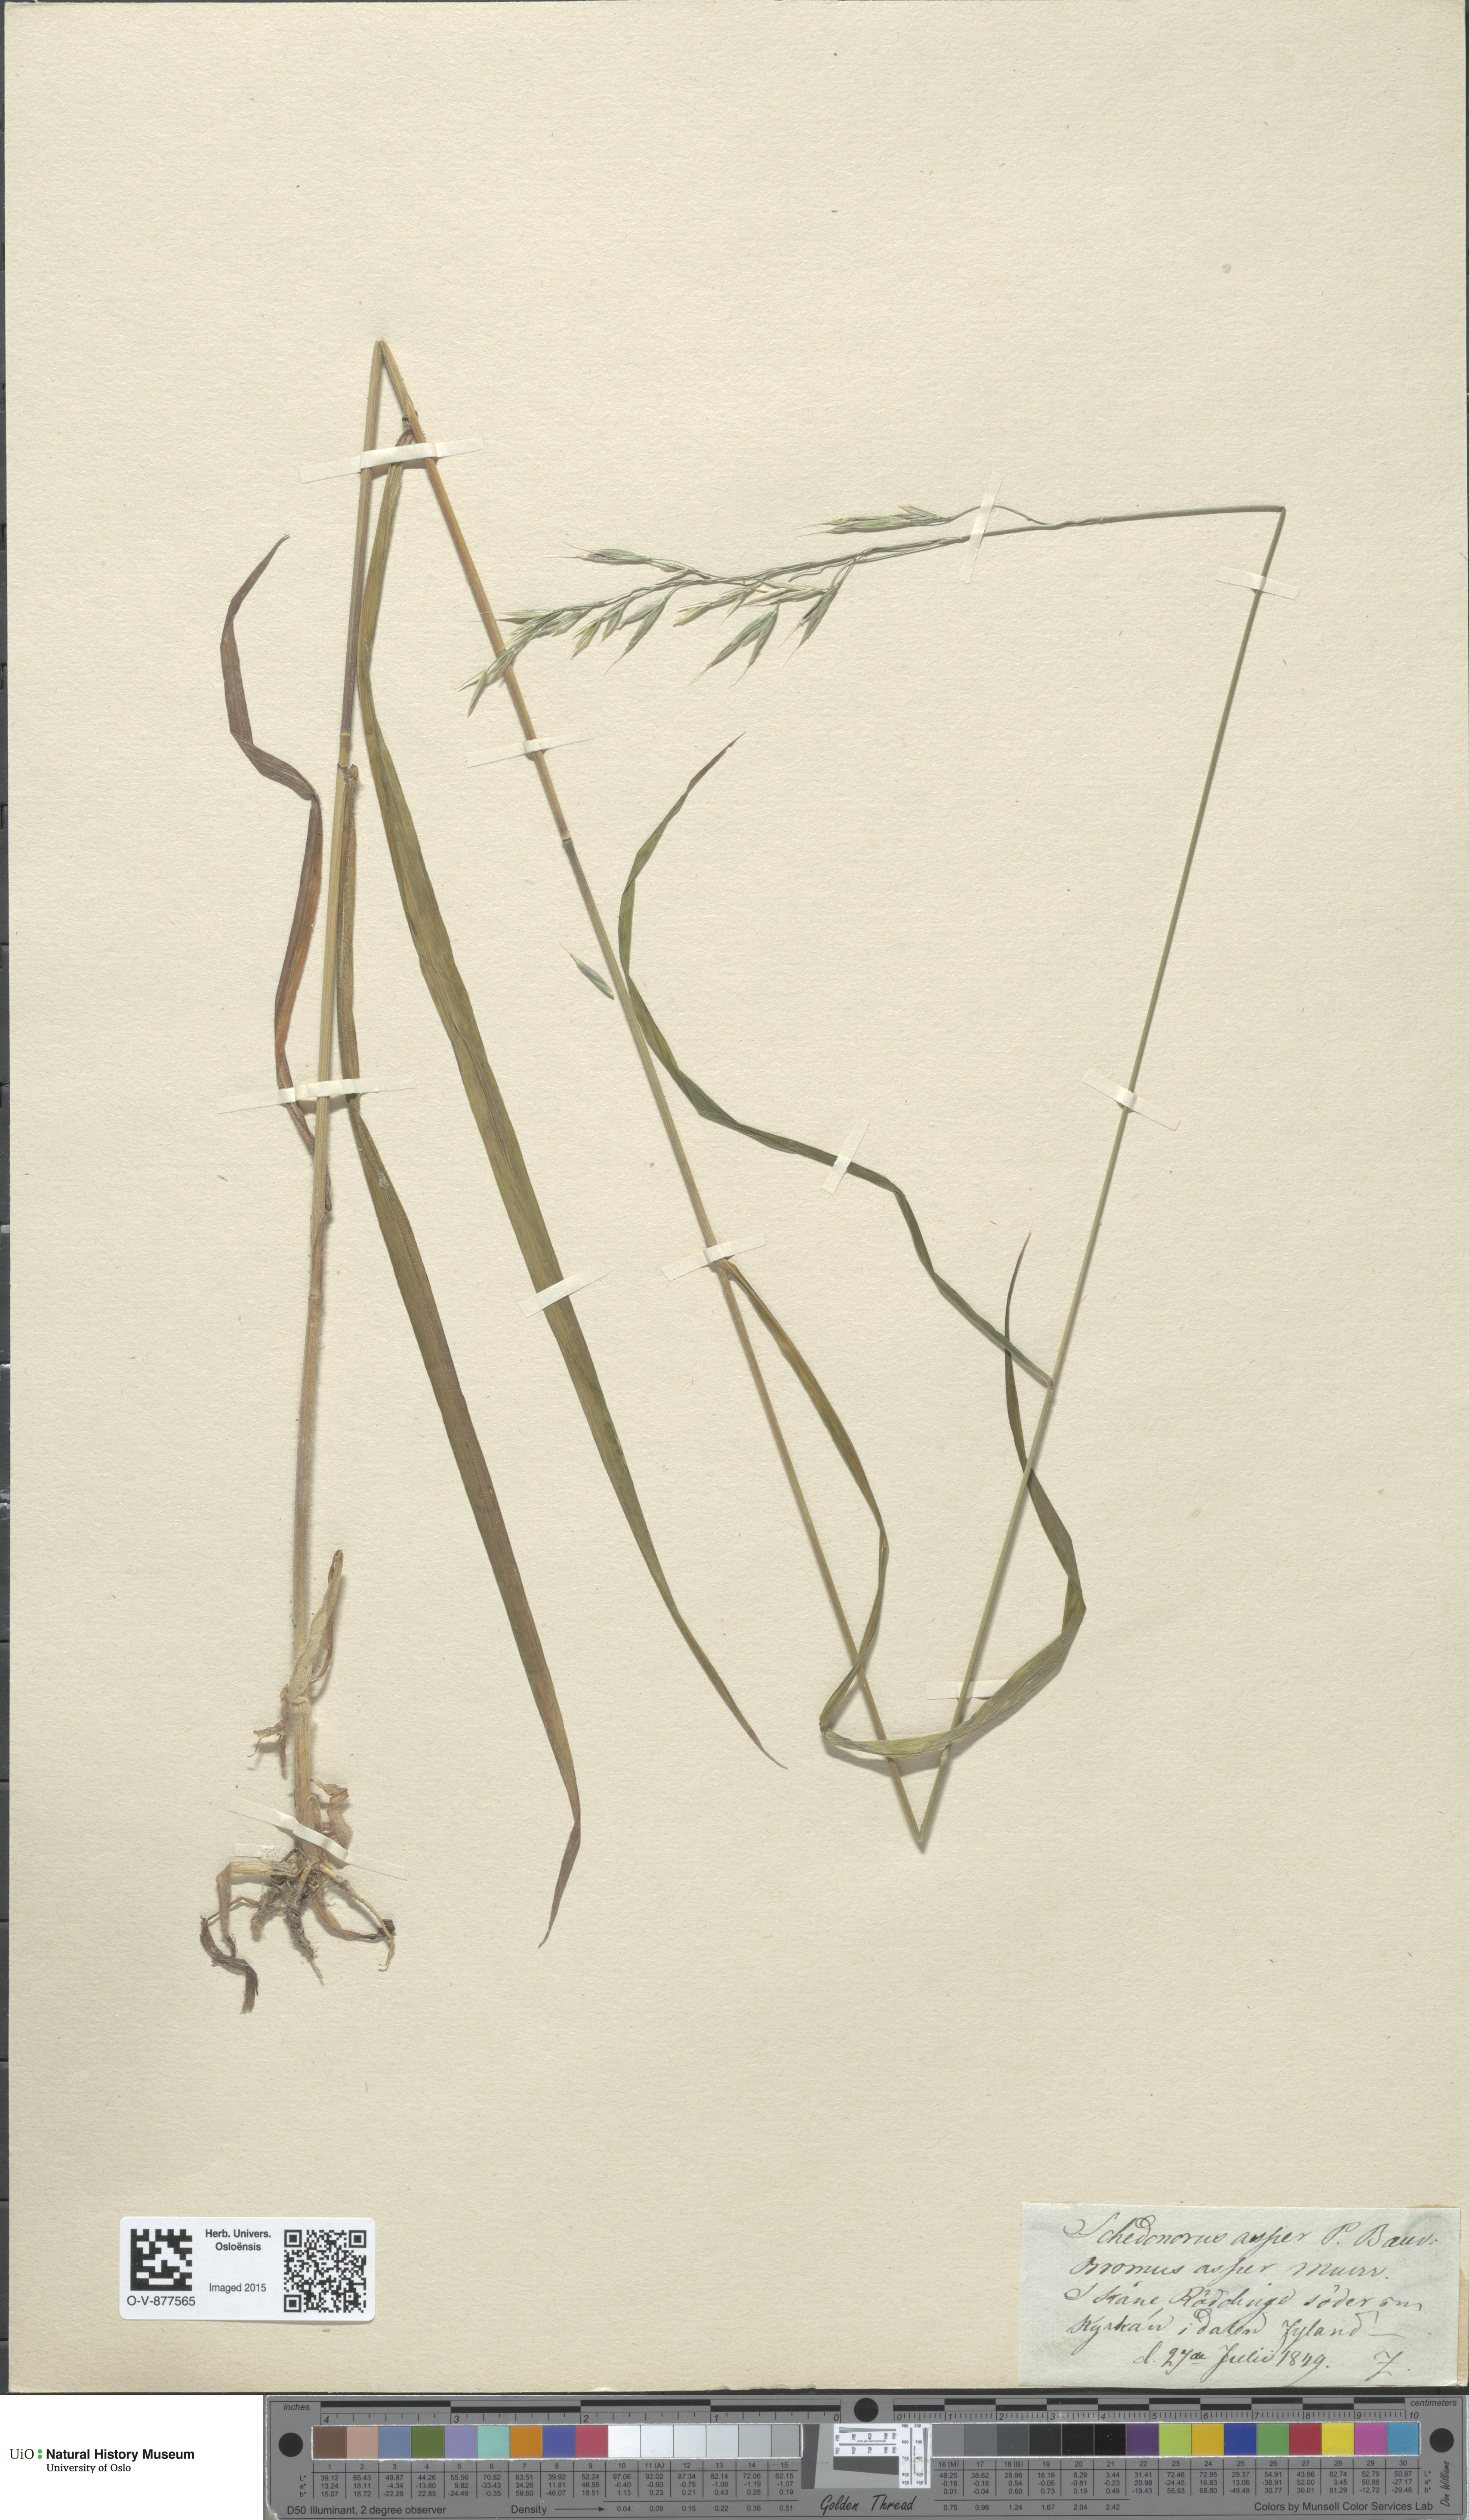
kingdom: Plantae
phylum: Tracheophyta
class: Liliopsida
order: Poales
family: Poaceae
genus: Bromus
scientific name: Bromus ramosus
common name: Hairy brome
